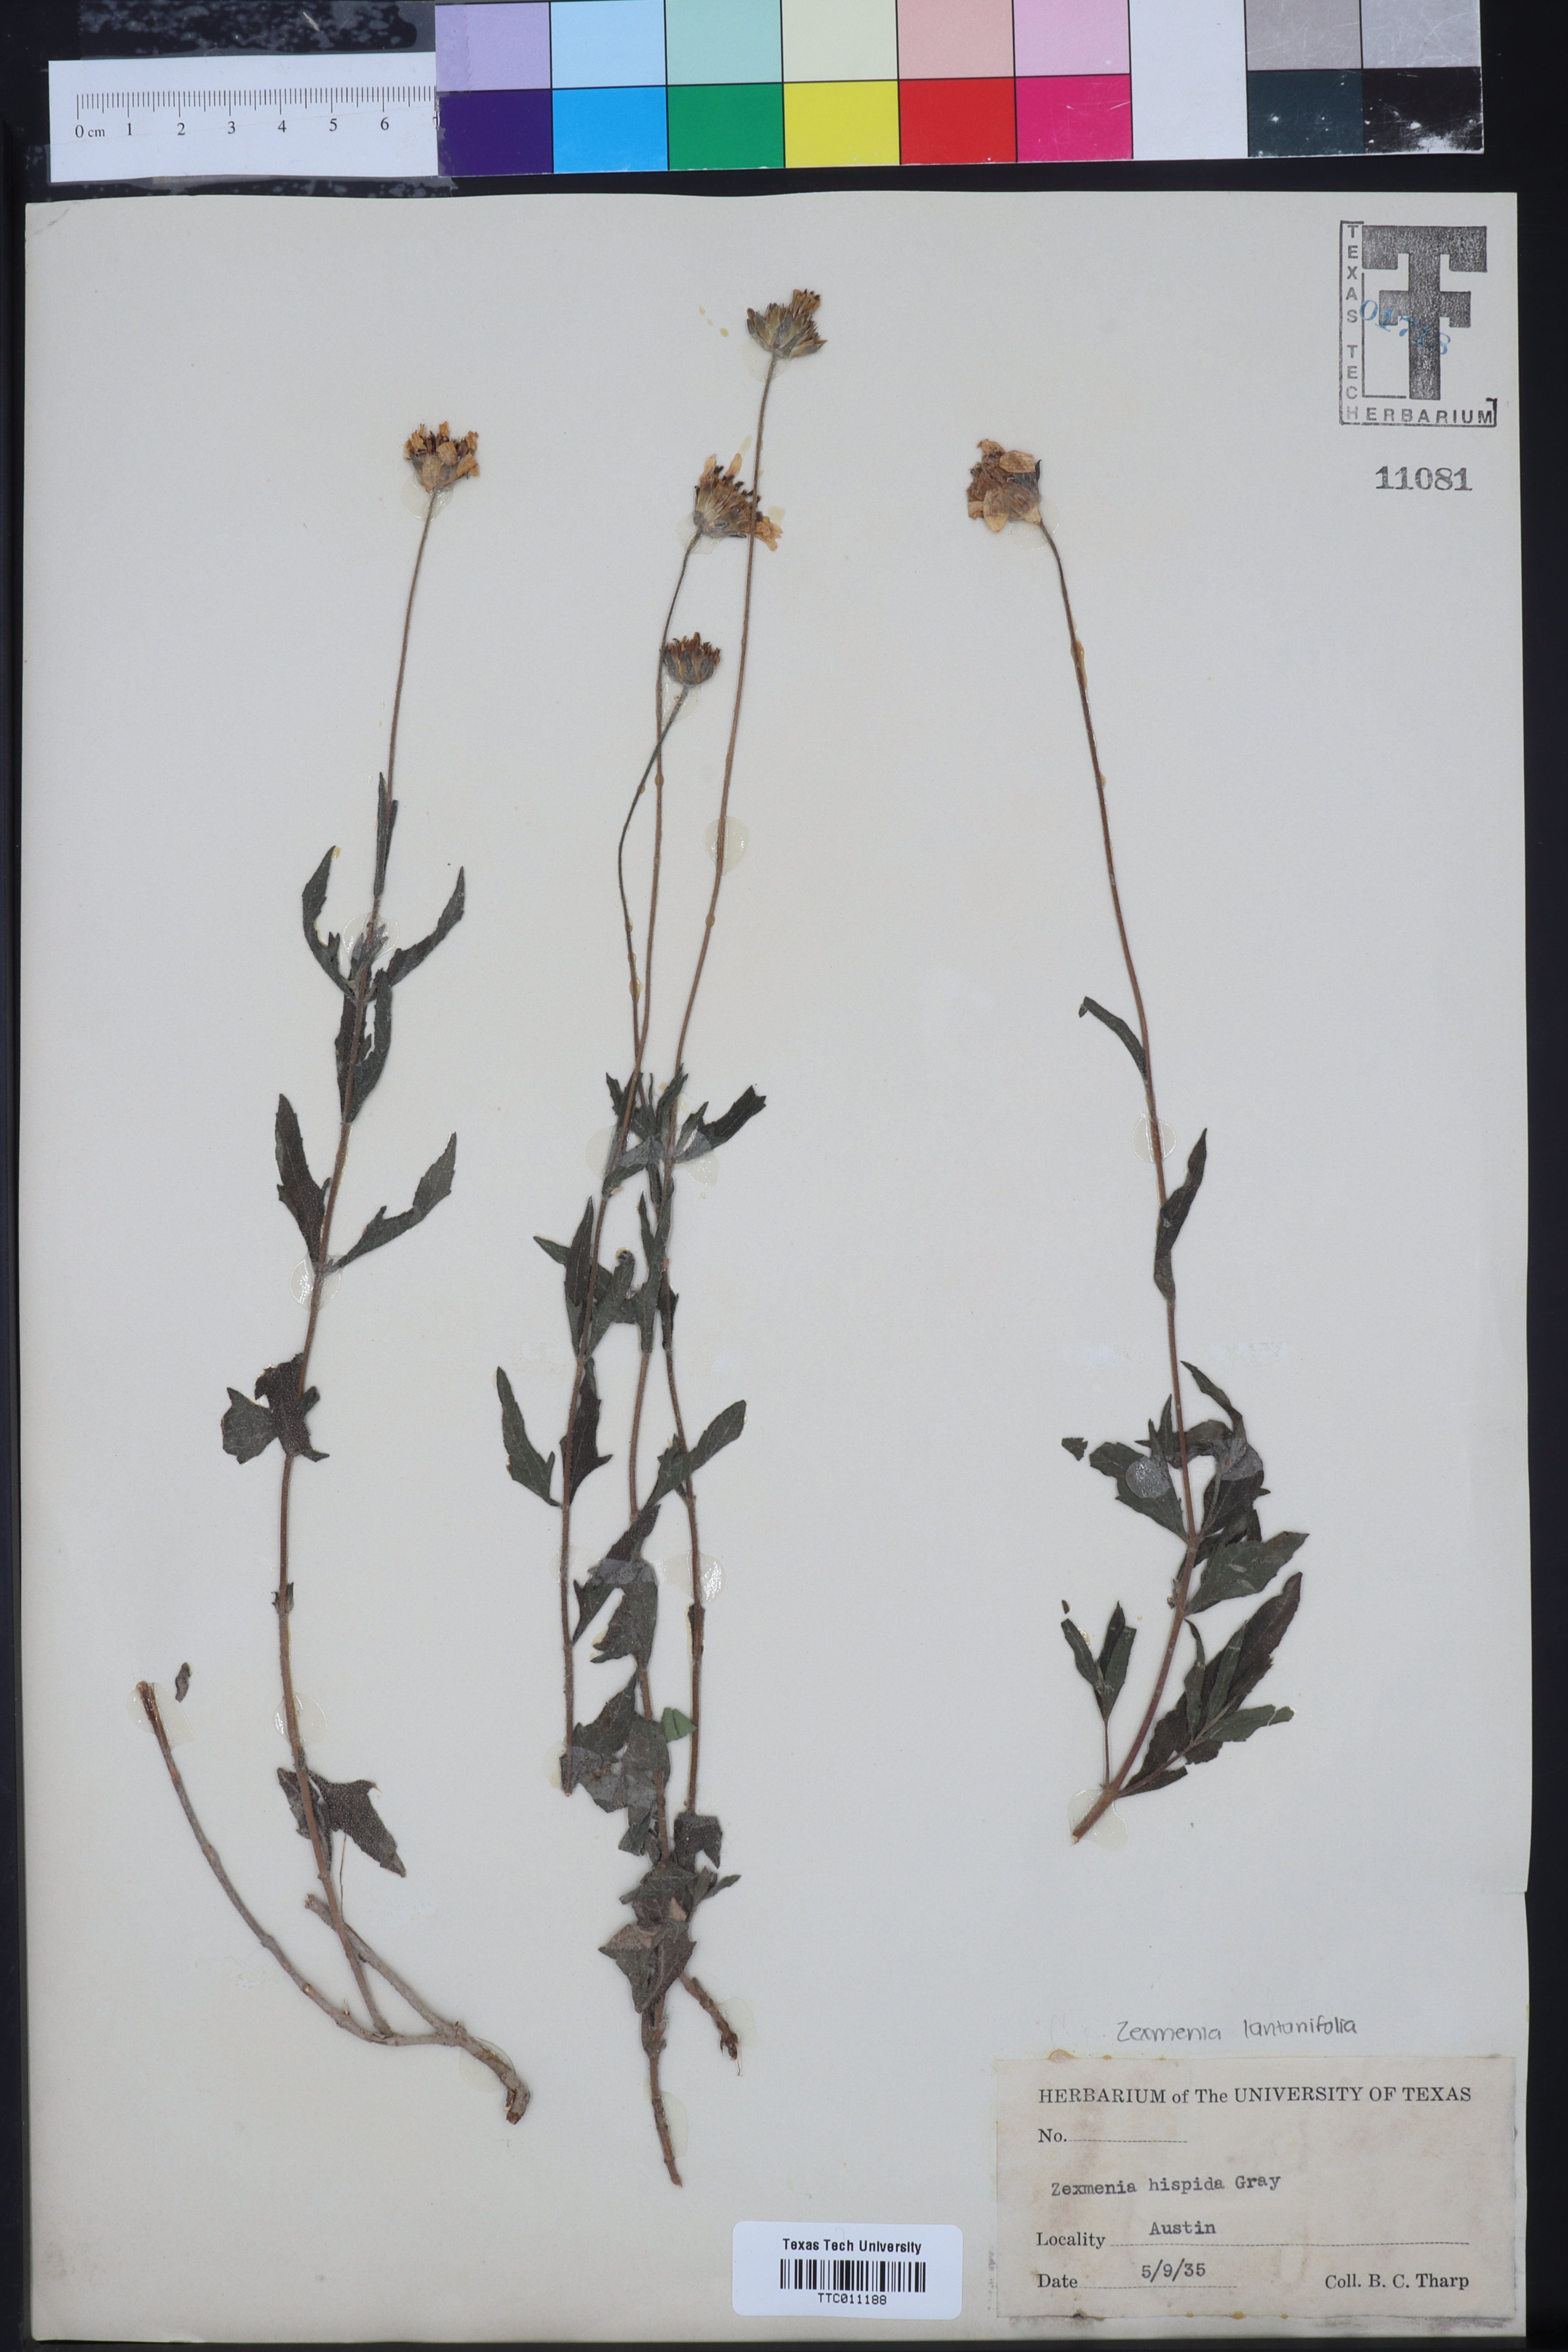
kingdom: Plantae
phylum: Tracheophyta
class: Magnoliopsida
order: Asterales
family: Asteraceae
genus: Wedelia
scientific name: Wedelia acapulcensis
